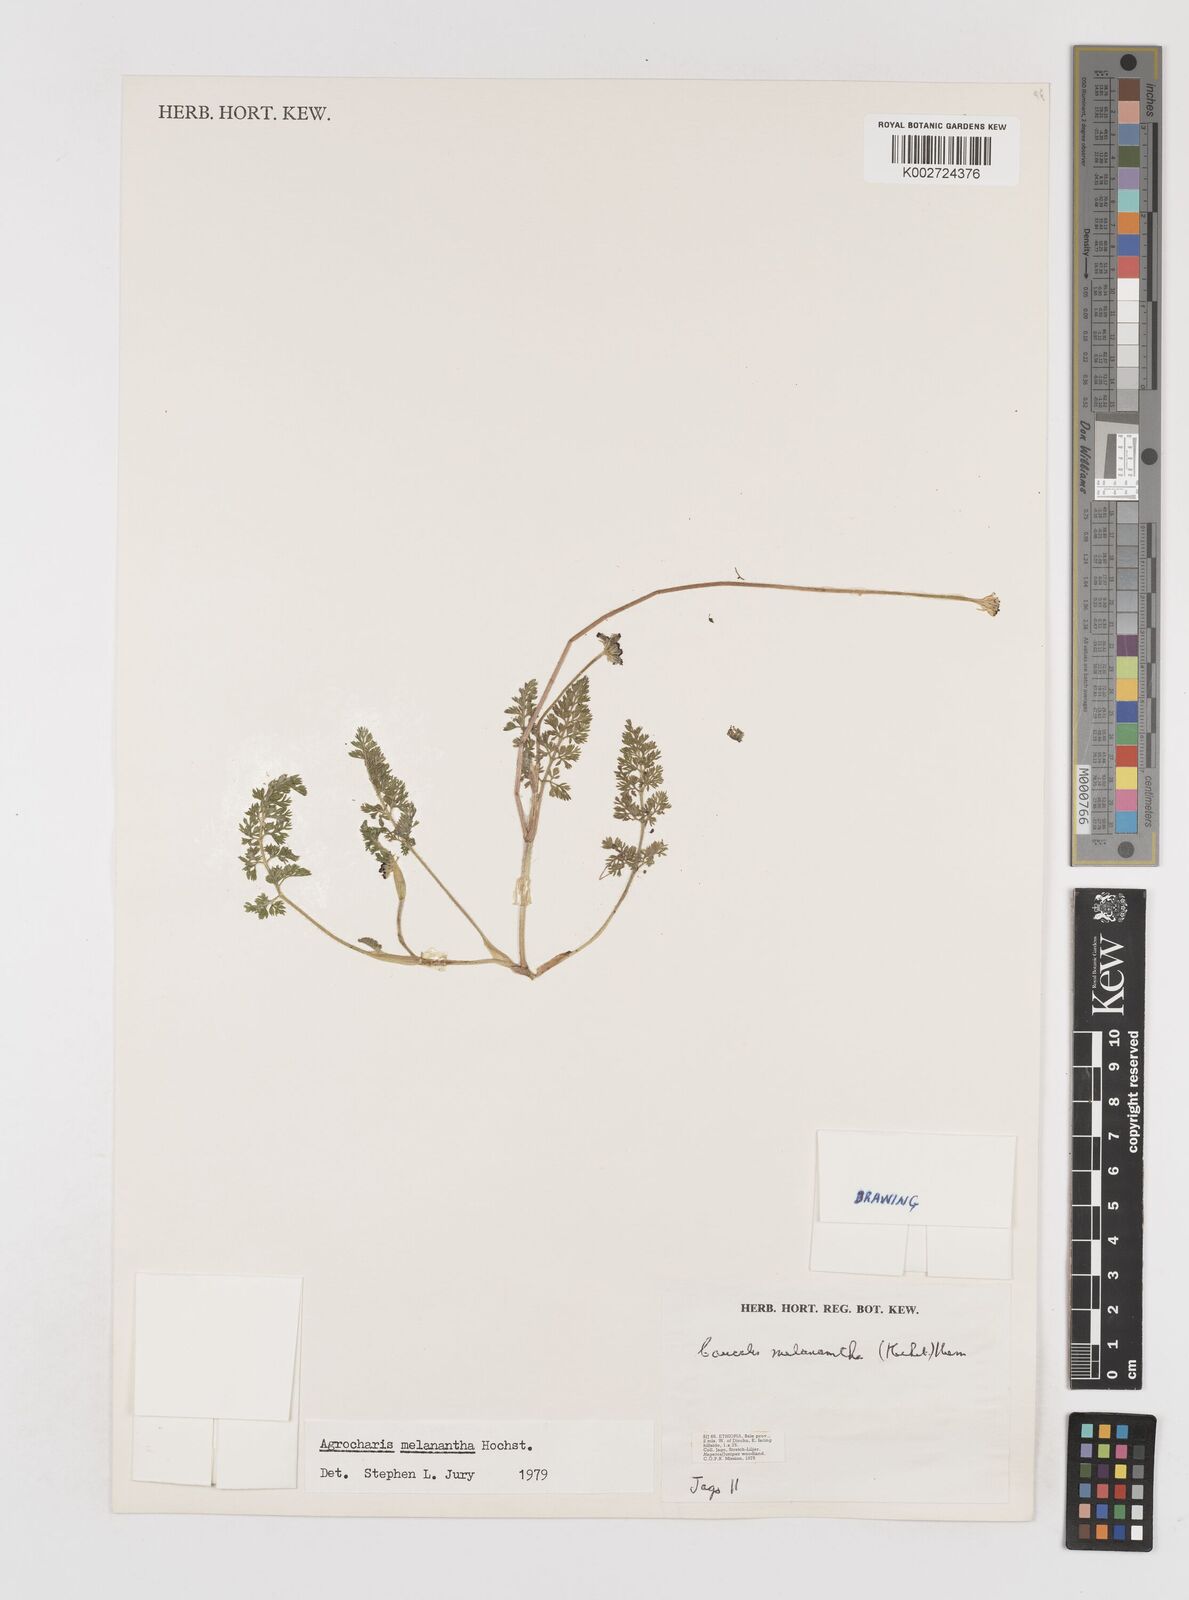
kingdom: Plantae
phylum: Tracheophyta
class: Magnoliopsida
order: Apiales
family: Apiaceae
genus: Daucus
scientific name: Daucus melananthus
